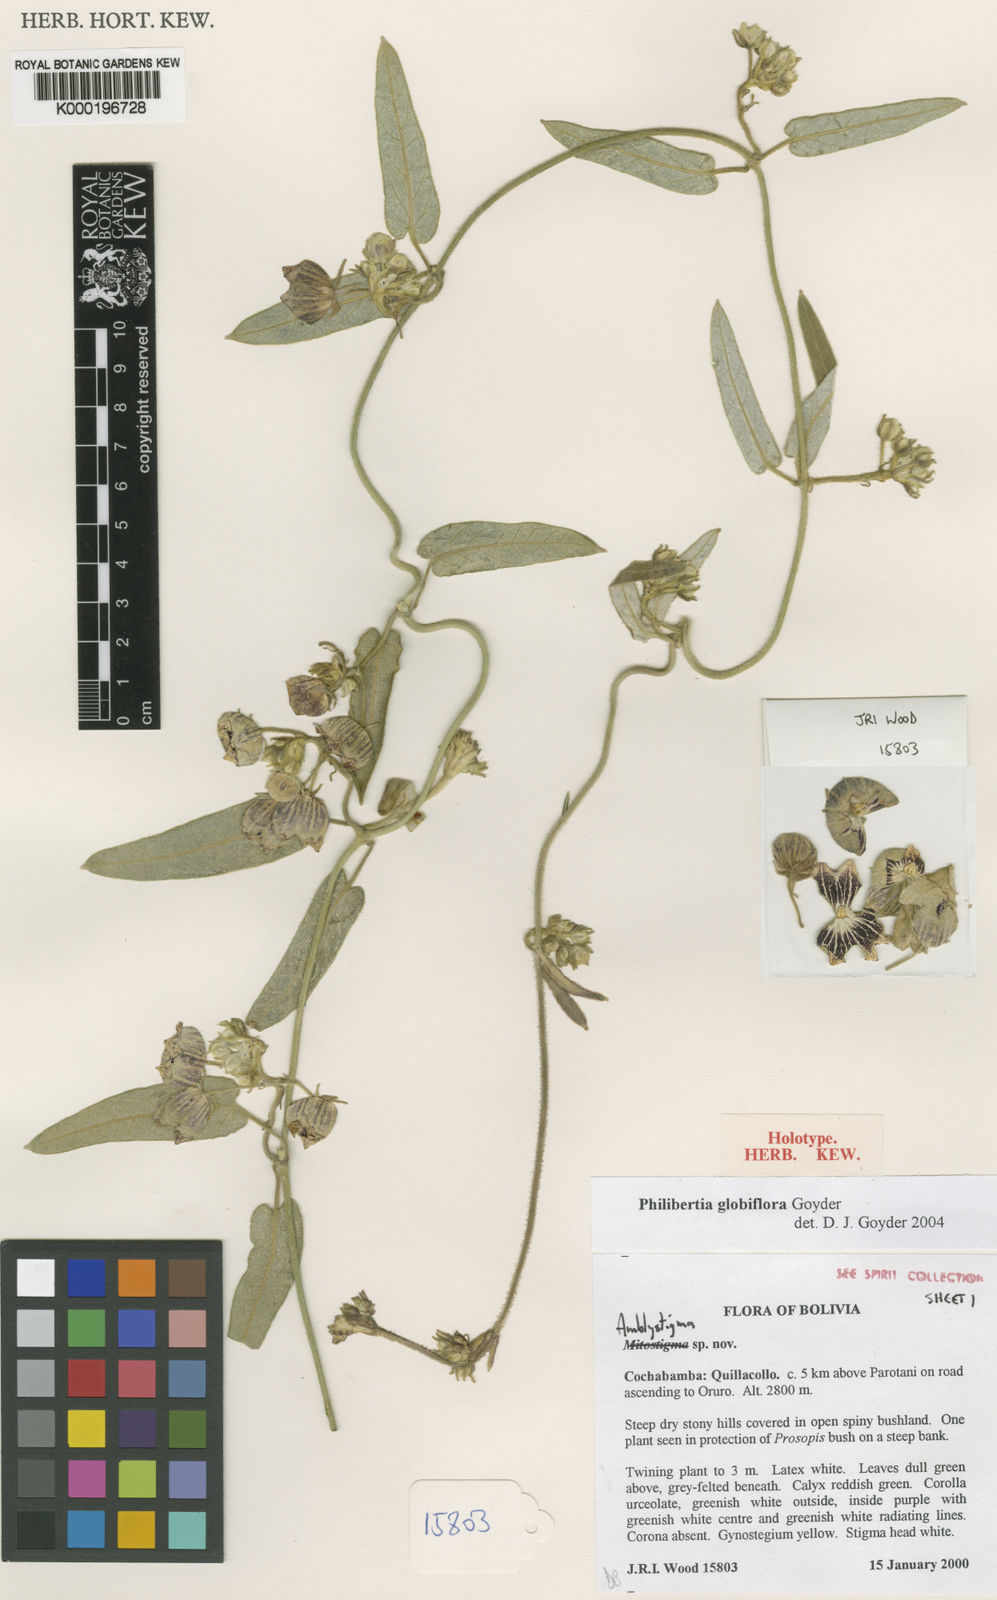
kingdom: Plantae
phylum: Tracheophyta
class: Magnoliopsida
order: Gentianales
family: Apocynaceae
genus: Philibertia
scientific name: Philibertia globiflora
